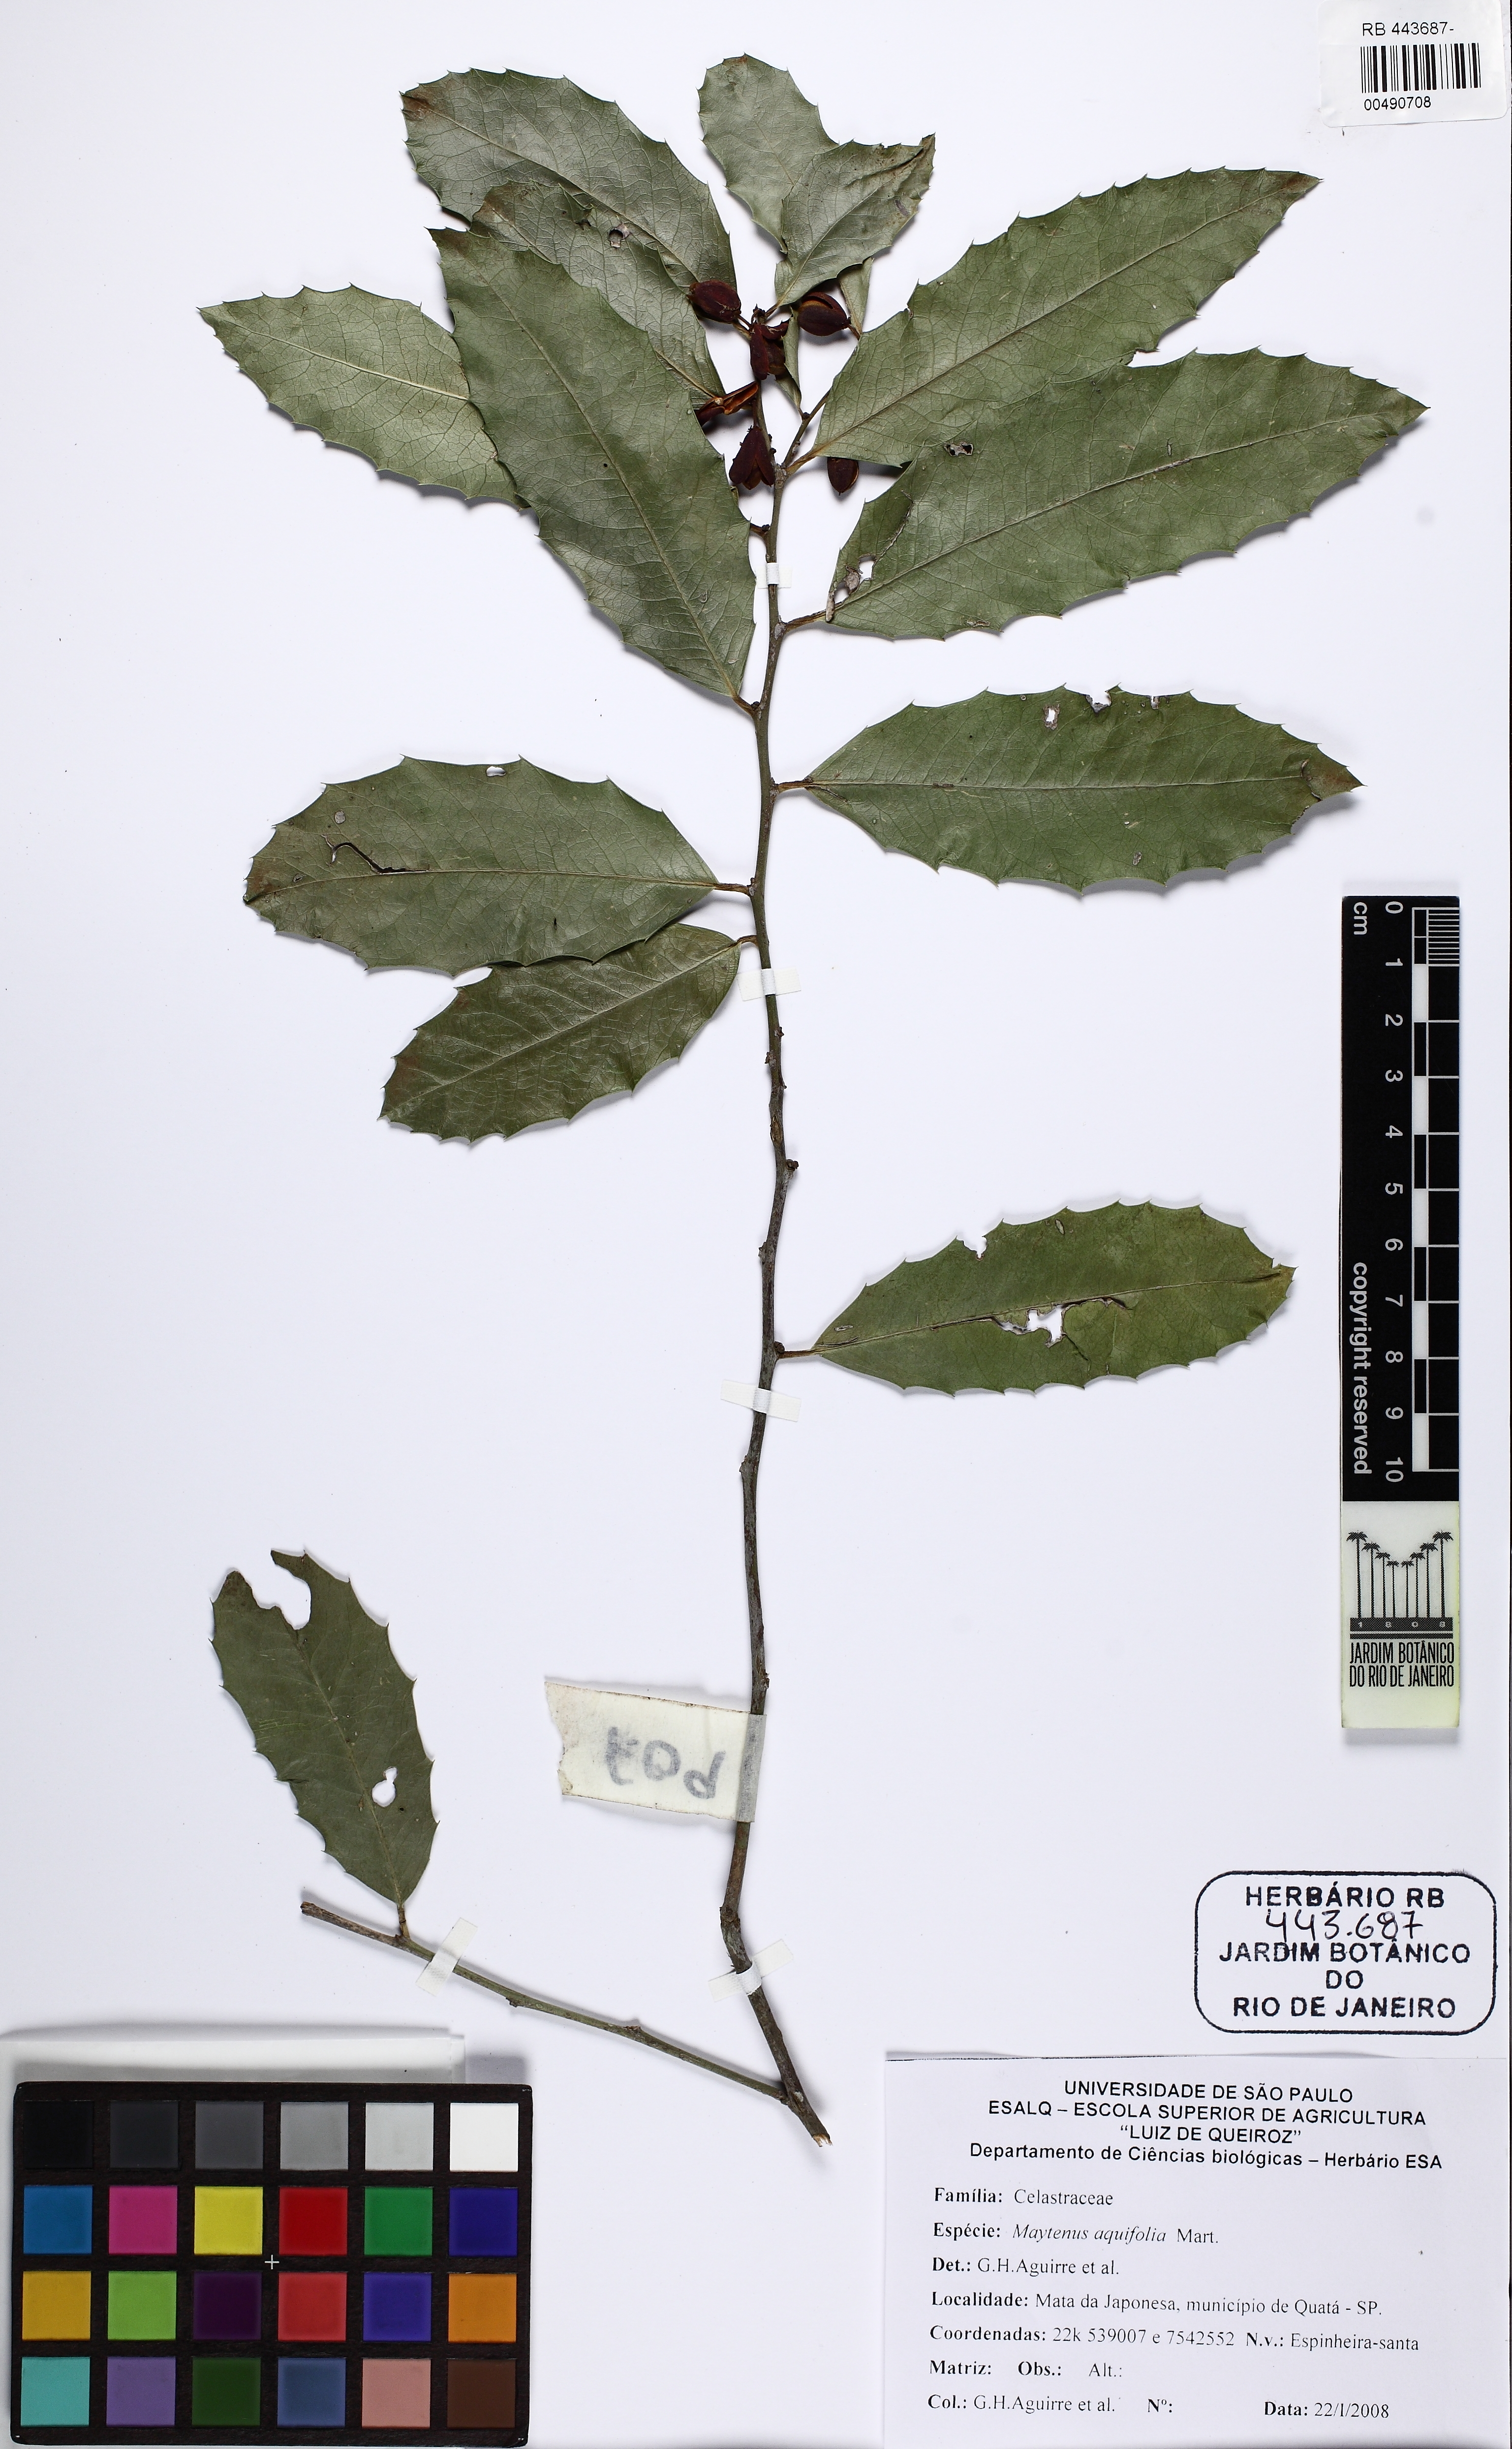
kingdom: Plantae
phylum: Tracheophyta
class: Magnoliopsida
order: Celastrales
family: Celastraceae
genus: Monteverdia
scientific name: Monteverdia aquifolium
